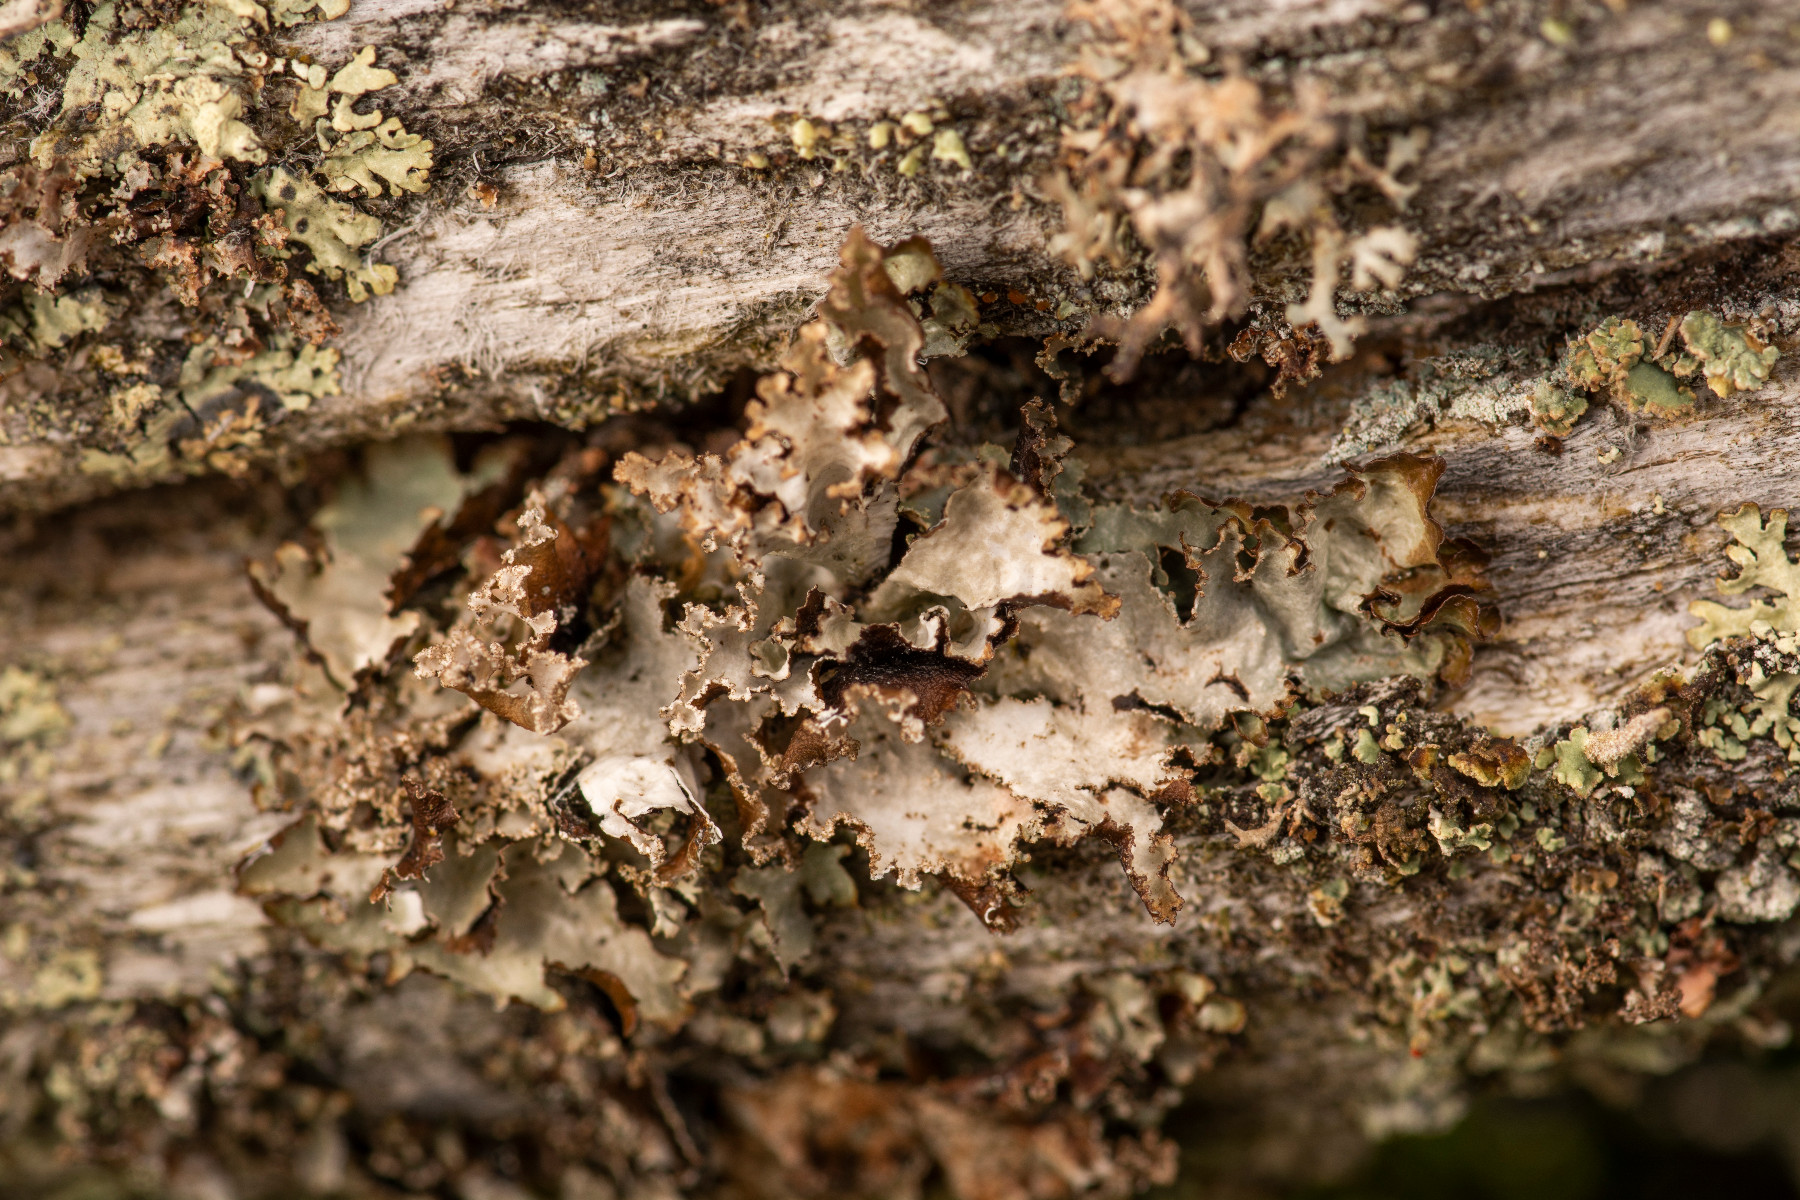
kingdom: Fungi
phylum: Ascomycota
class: Lecanoromycetes
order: Lecanorales
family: Parmeliaceae
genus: Platismatia
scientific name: Platismatia glauca
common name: blågrå papirlav
